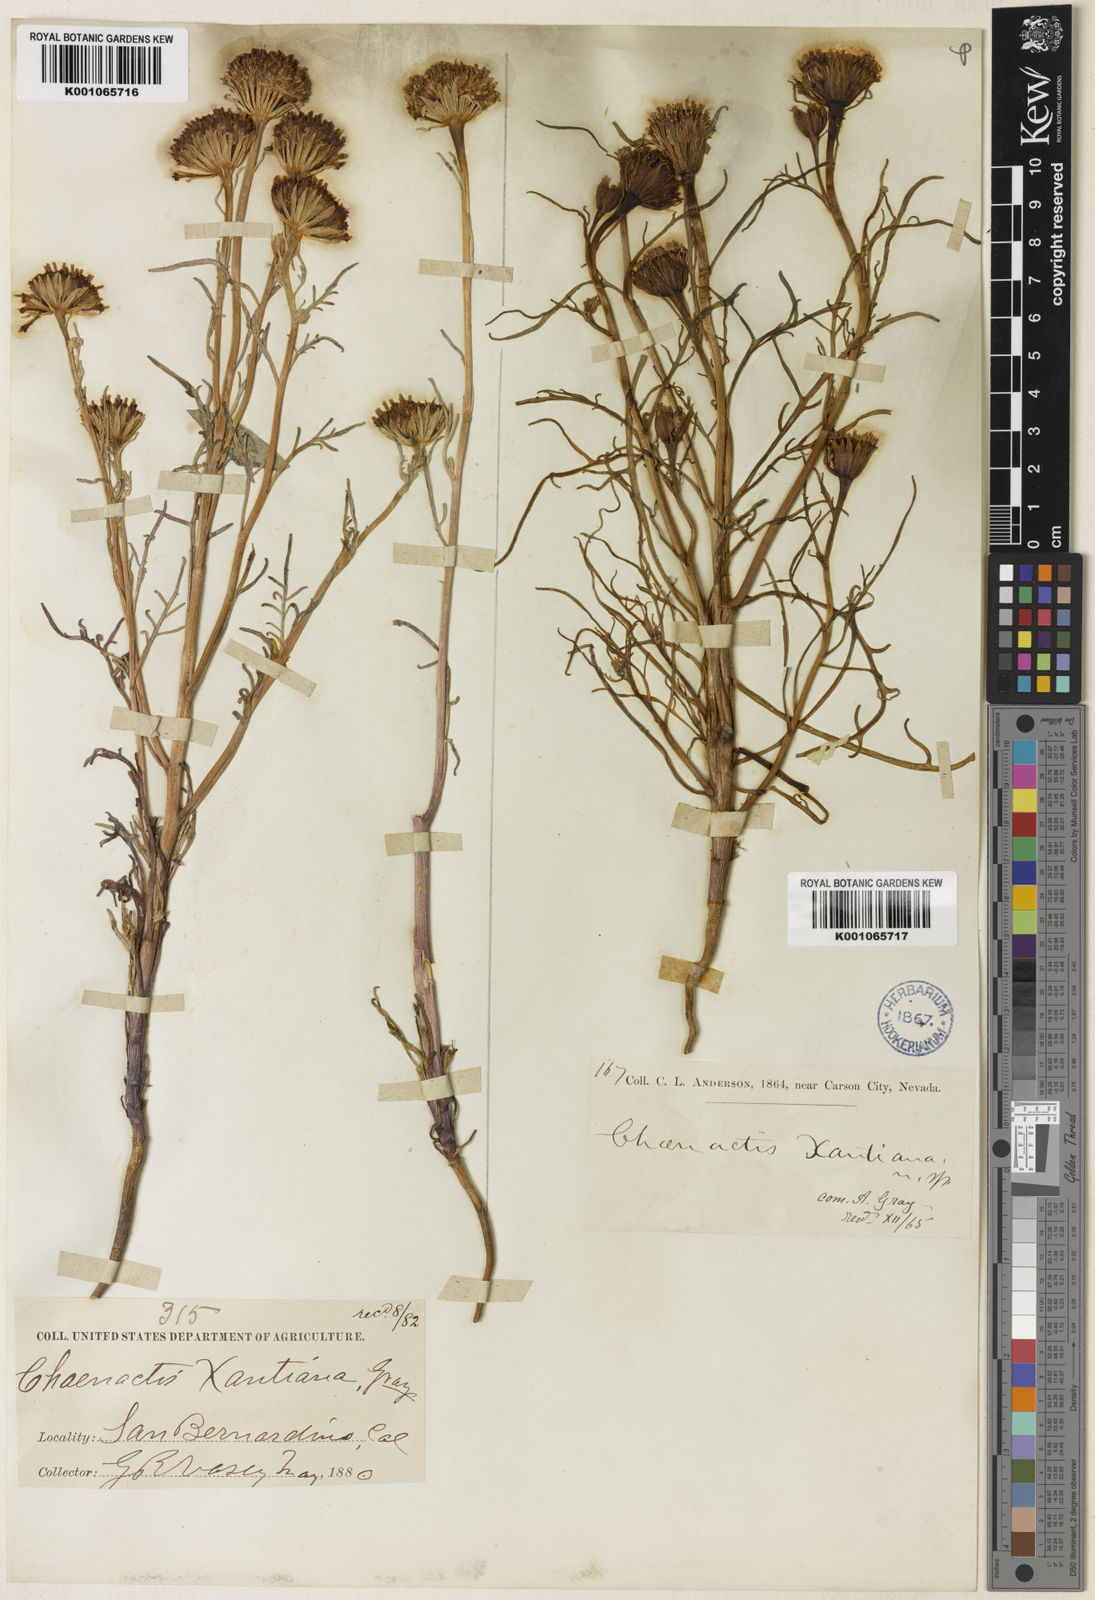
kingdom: Plantae
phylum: Tracheophyta
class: Magnoliopsida
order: Asterales
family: Asteraceae
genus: Chaenactis
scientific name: Chaenactis xantiana
